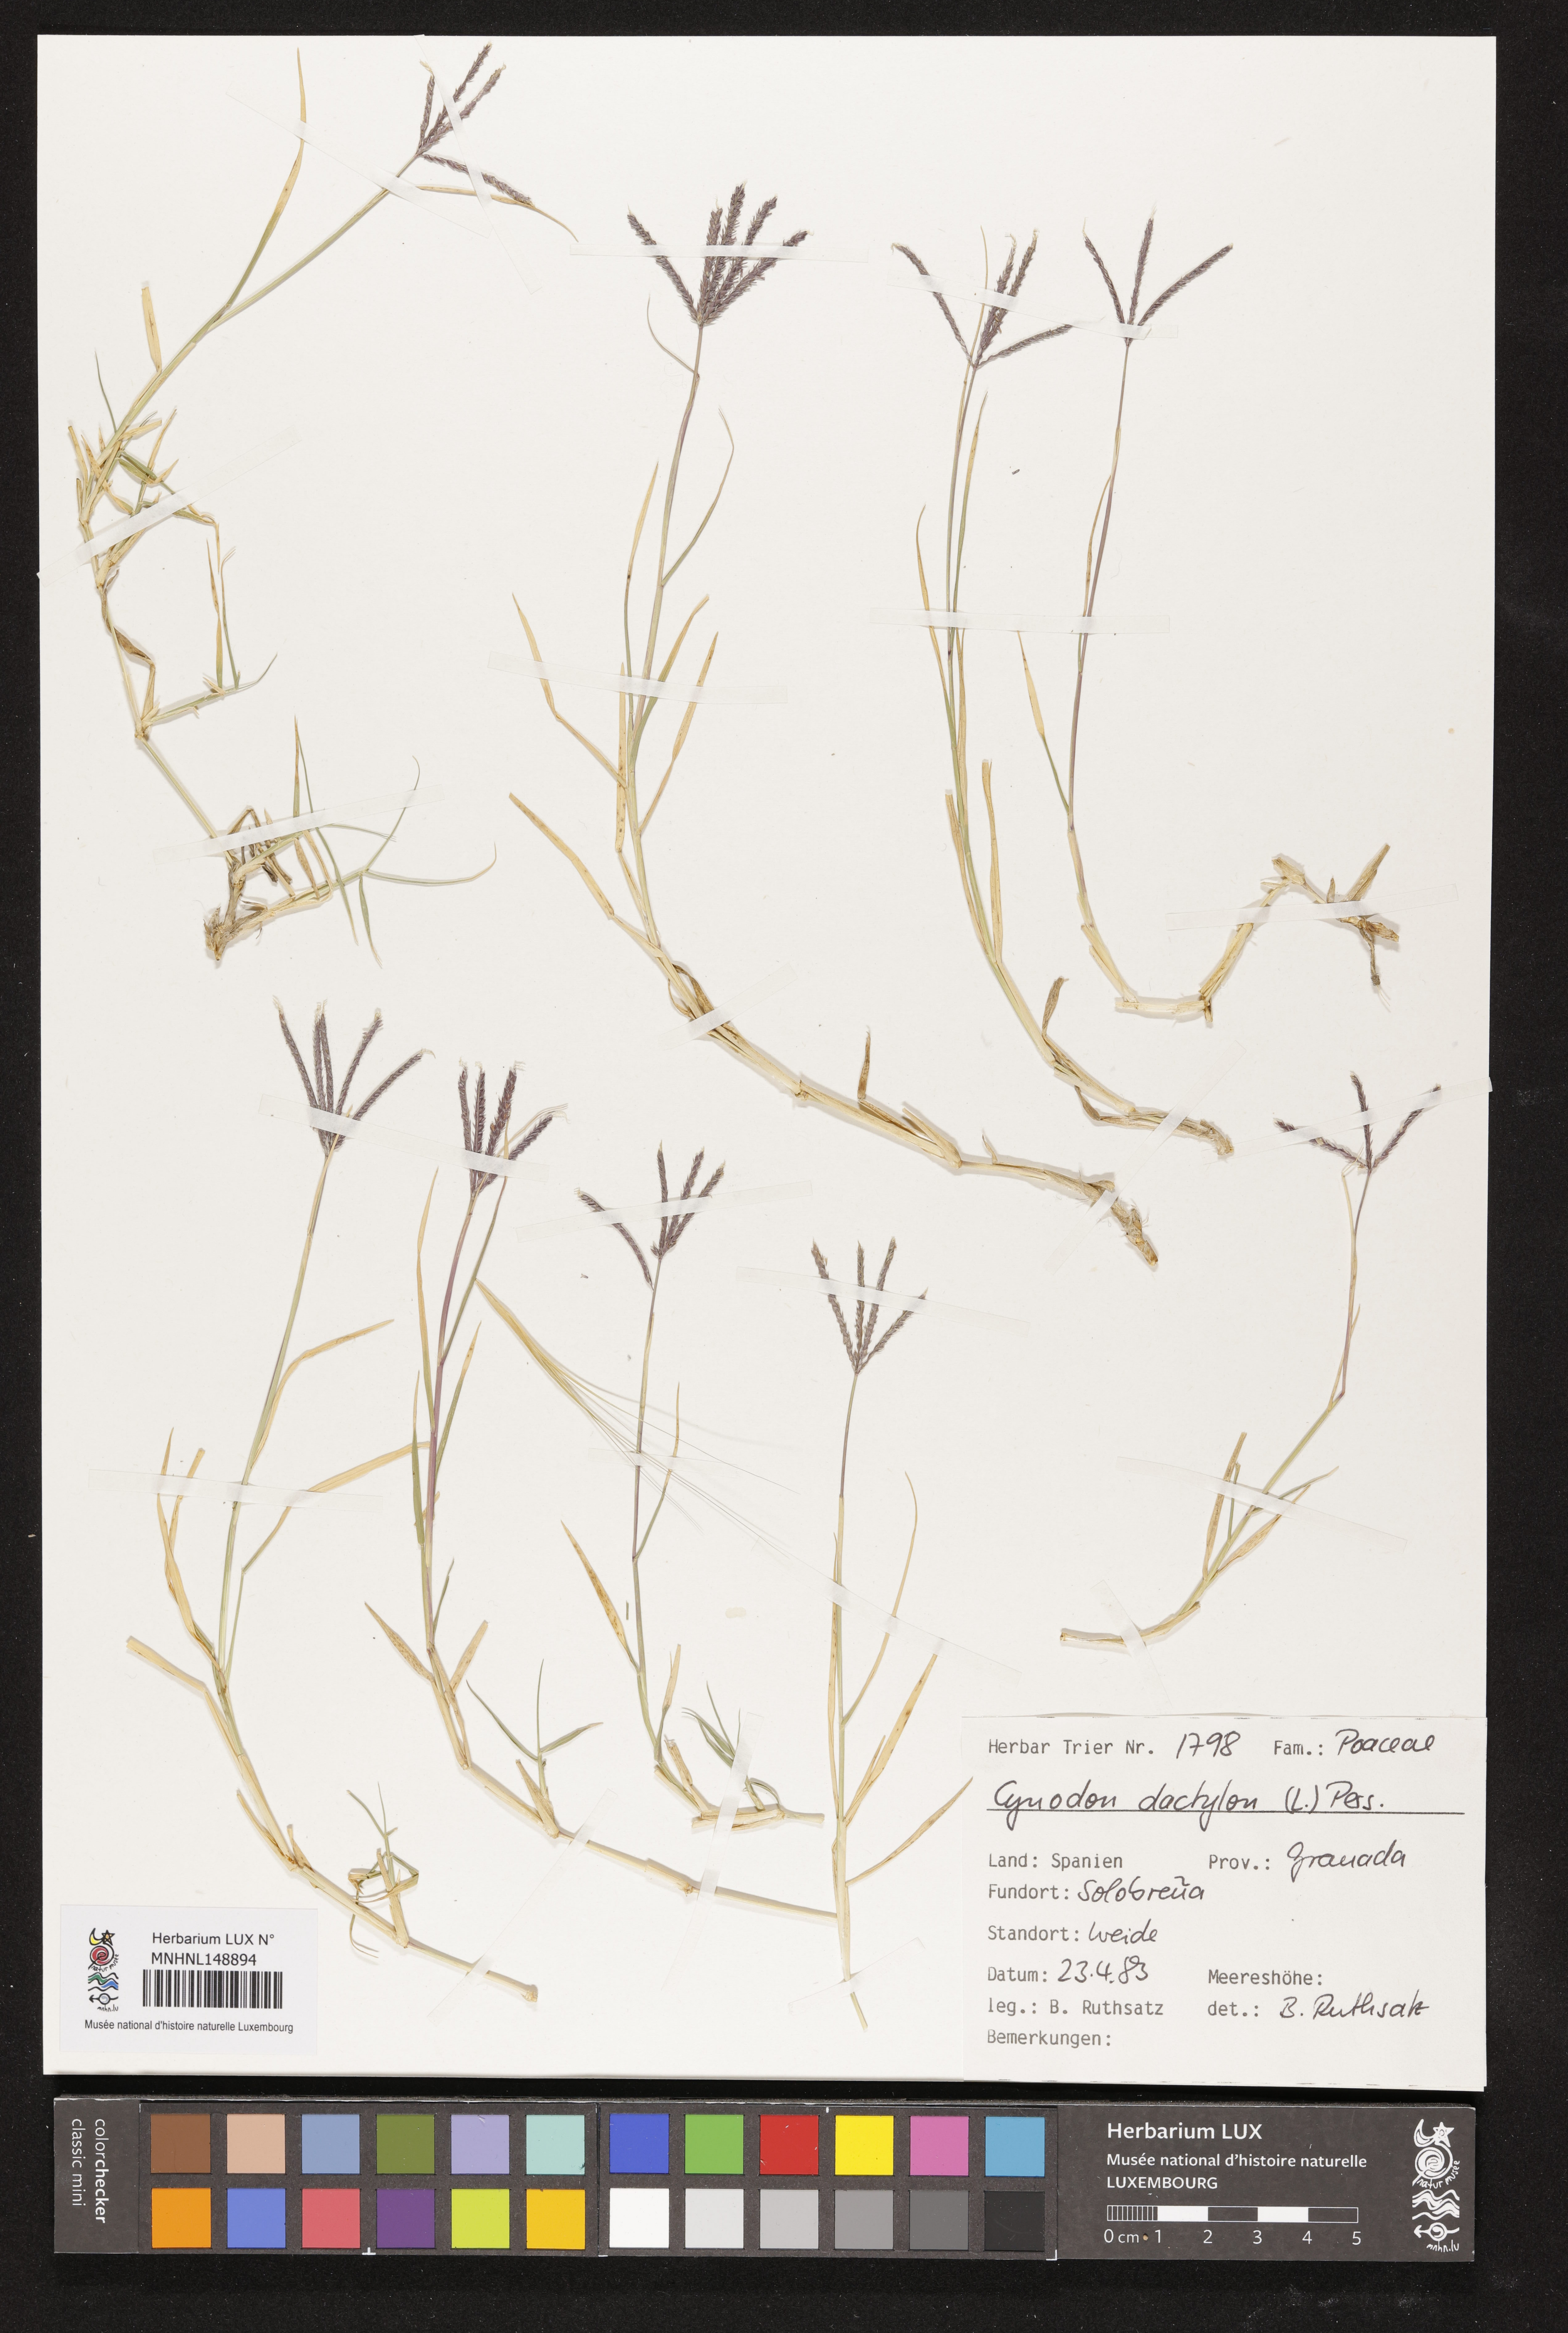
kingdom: Plantae
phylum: Tracheophyta
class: Liliopsida
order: Poales
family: Poaceae
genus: Cynodon
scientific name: Cynodon dactylon
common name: Bermuda grass
